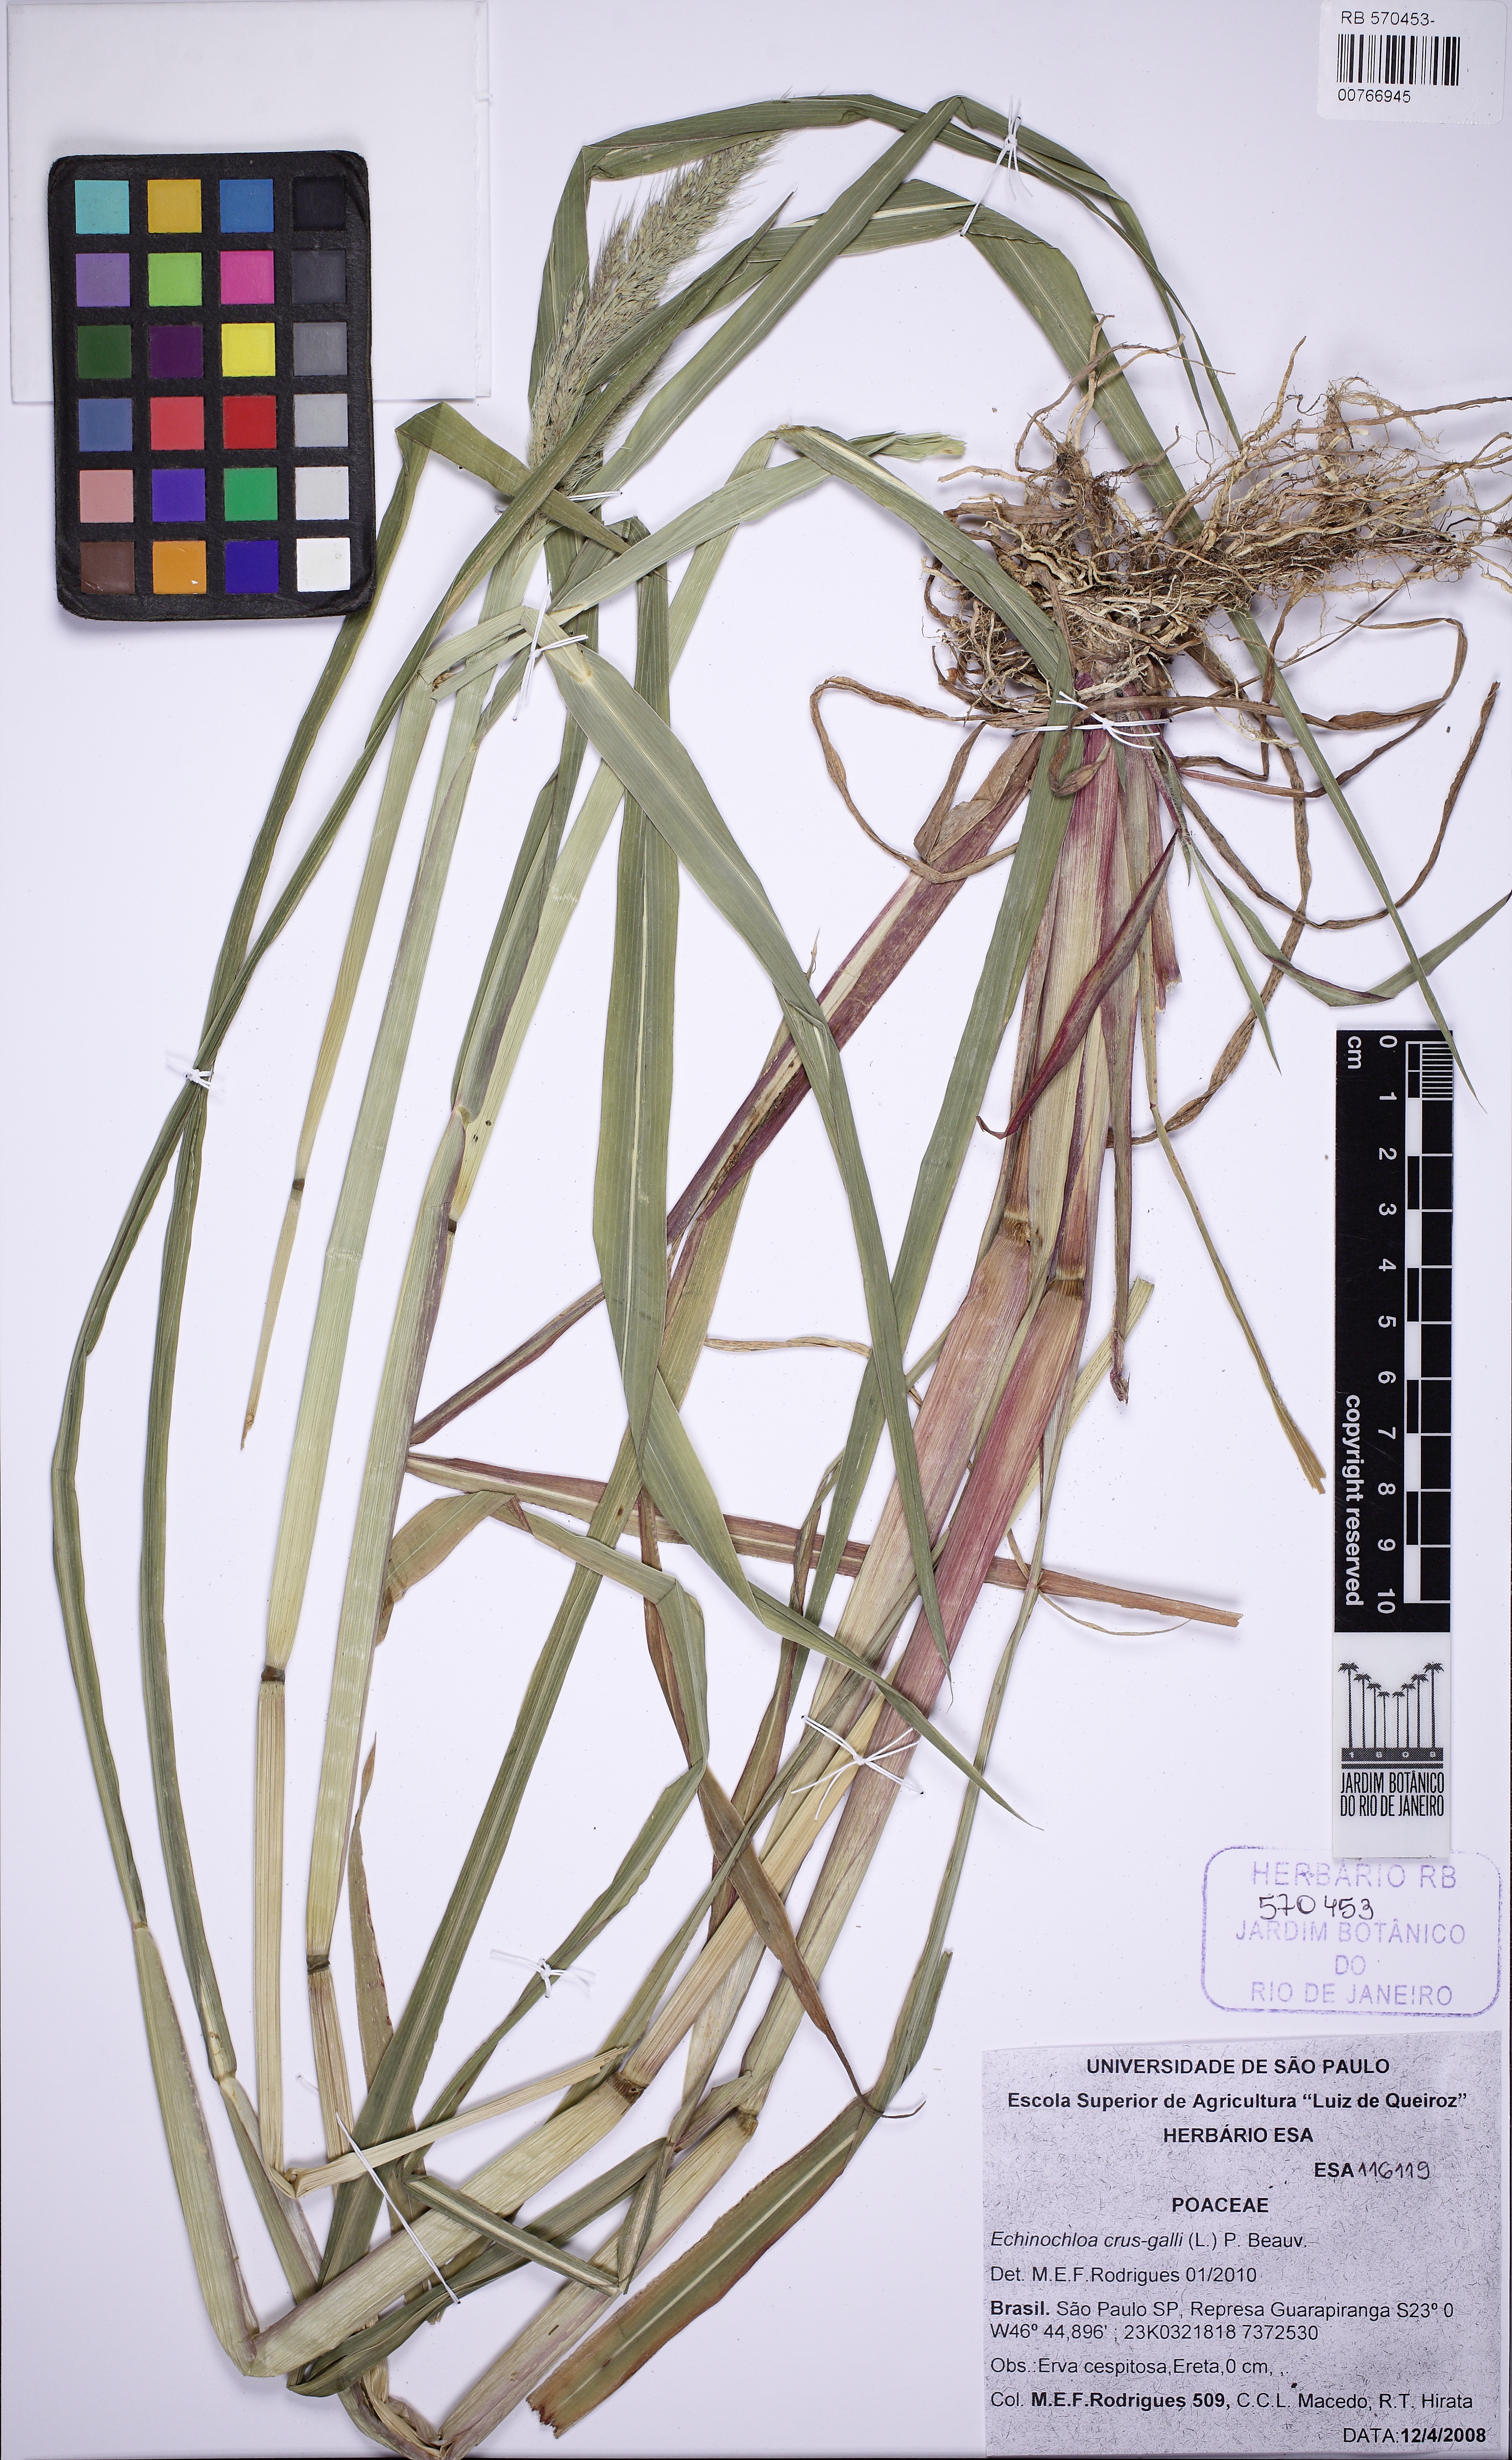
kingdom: Plantae
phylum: Tracheophyta
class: Liliopsida
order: Poales
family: Poaceae
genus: Echinochloa
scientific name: Echinochloa
